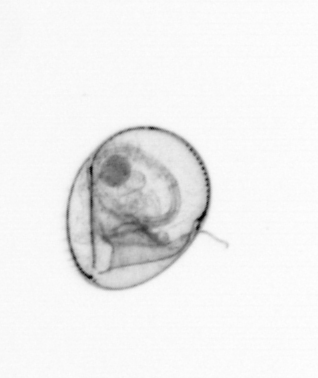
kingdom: Chromista
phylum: Myzozoa
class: Dinophyceae
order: Noctilucales
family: Noctilucaceae
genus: Noctiluca
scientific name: Noctiluca scintillans
